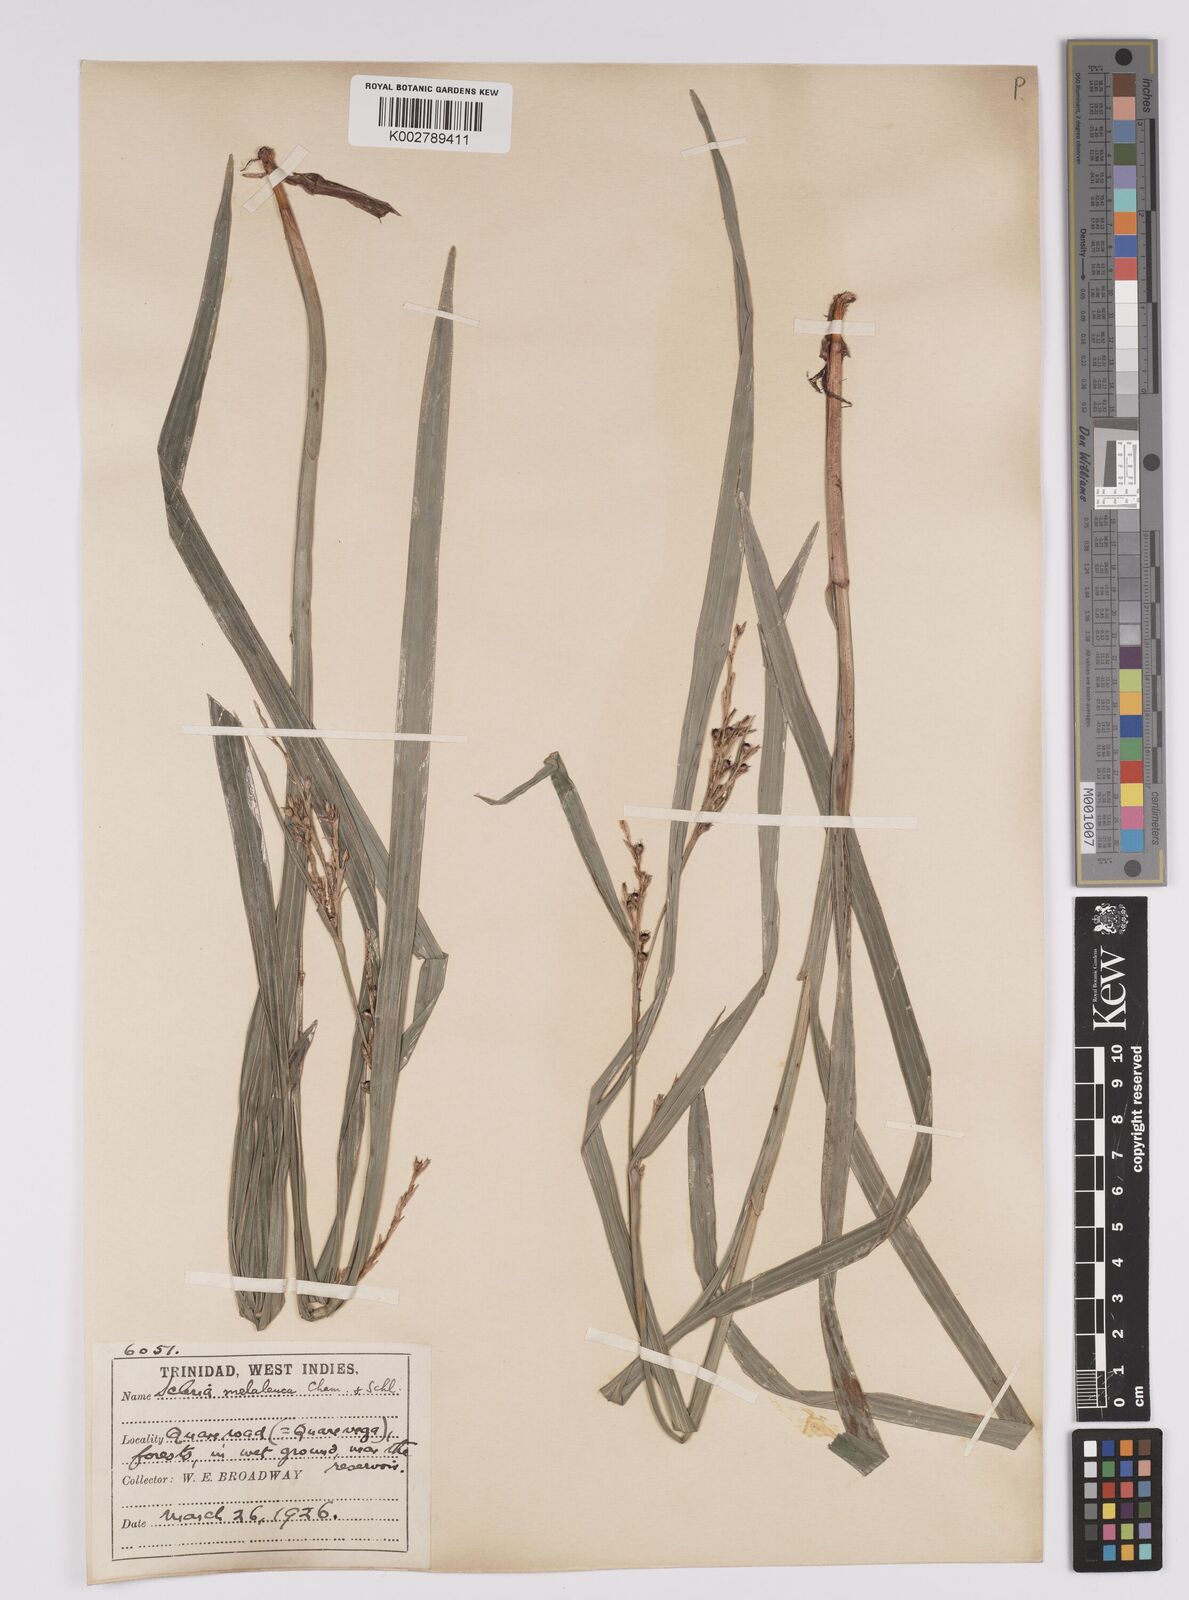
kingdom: Plantae
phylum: Tracheophyta
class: Liliopsida
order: Poales
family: Cyperaceae
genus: Scleria
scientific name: Scleria gaertneri
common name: Cortadera blanca
